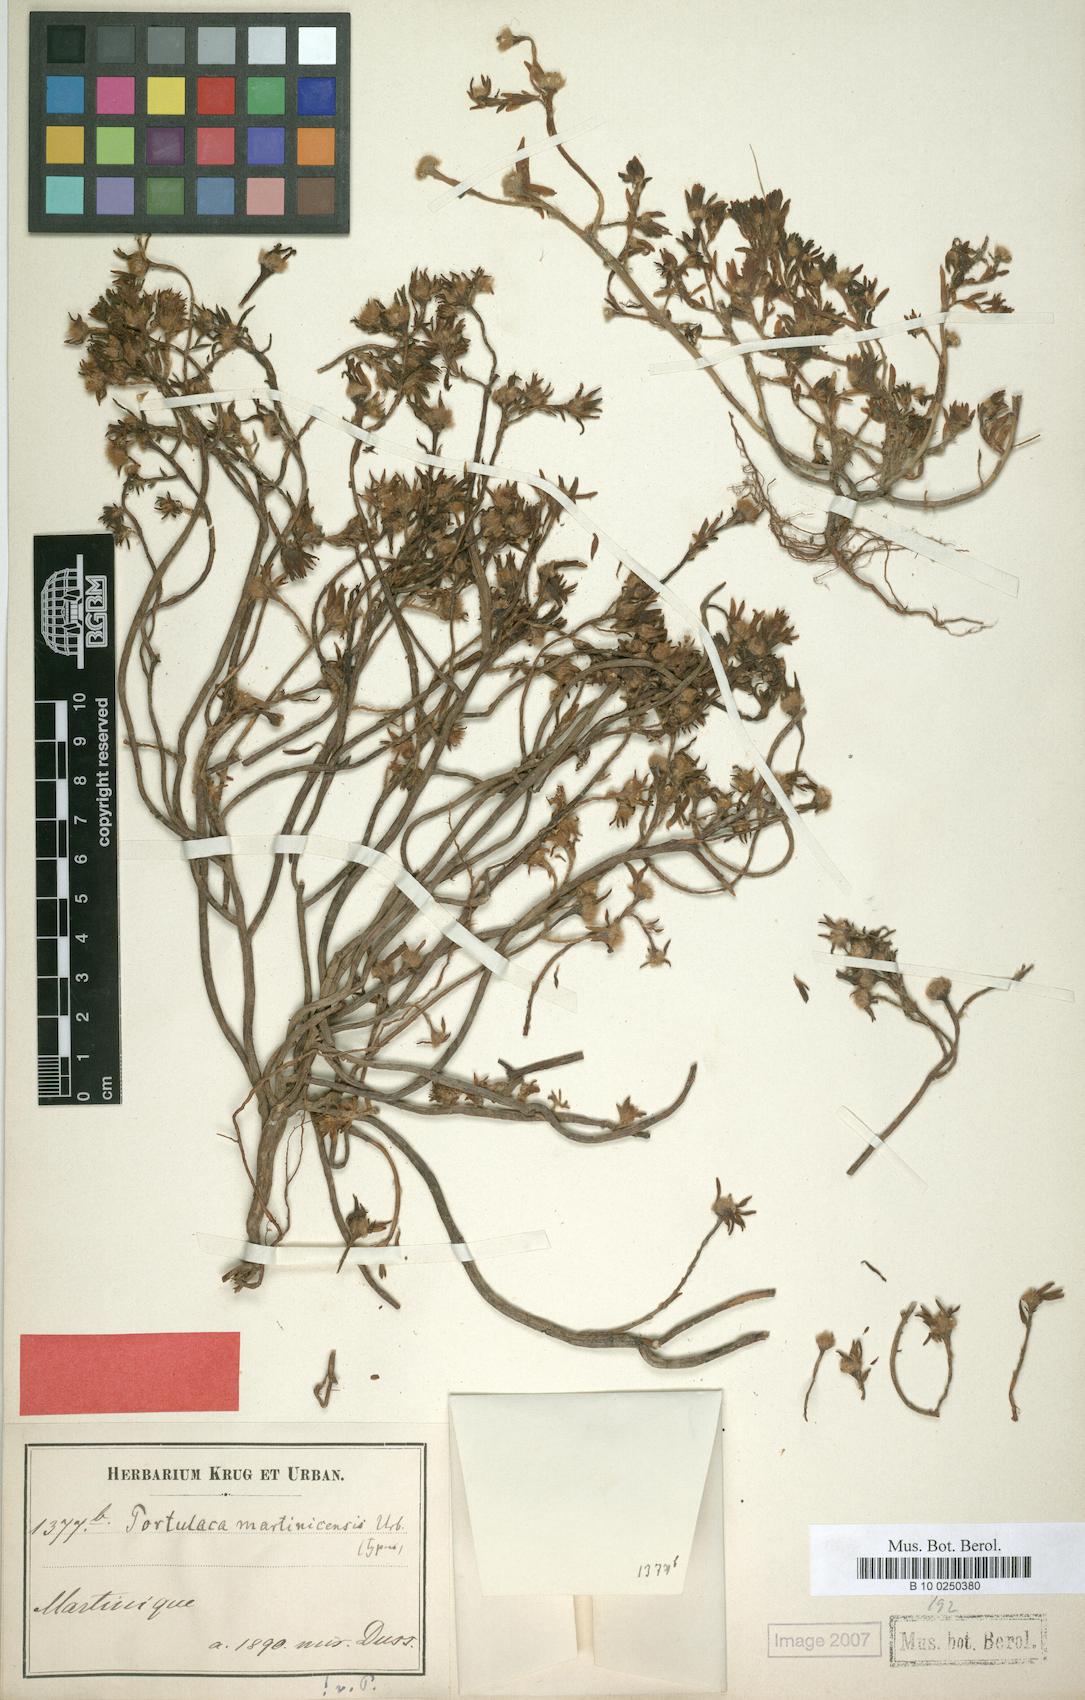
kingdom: Plantae
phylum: Tracheophyta
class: Magnoliopsida
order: Caryophyllales
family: Portulacaceae
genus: Portulaca
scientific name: Portulaca halimoides
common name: Silk cotton purslane
